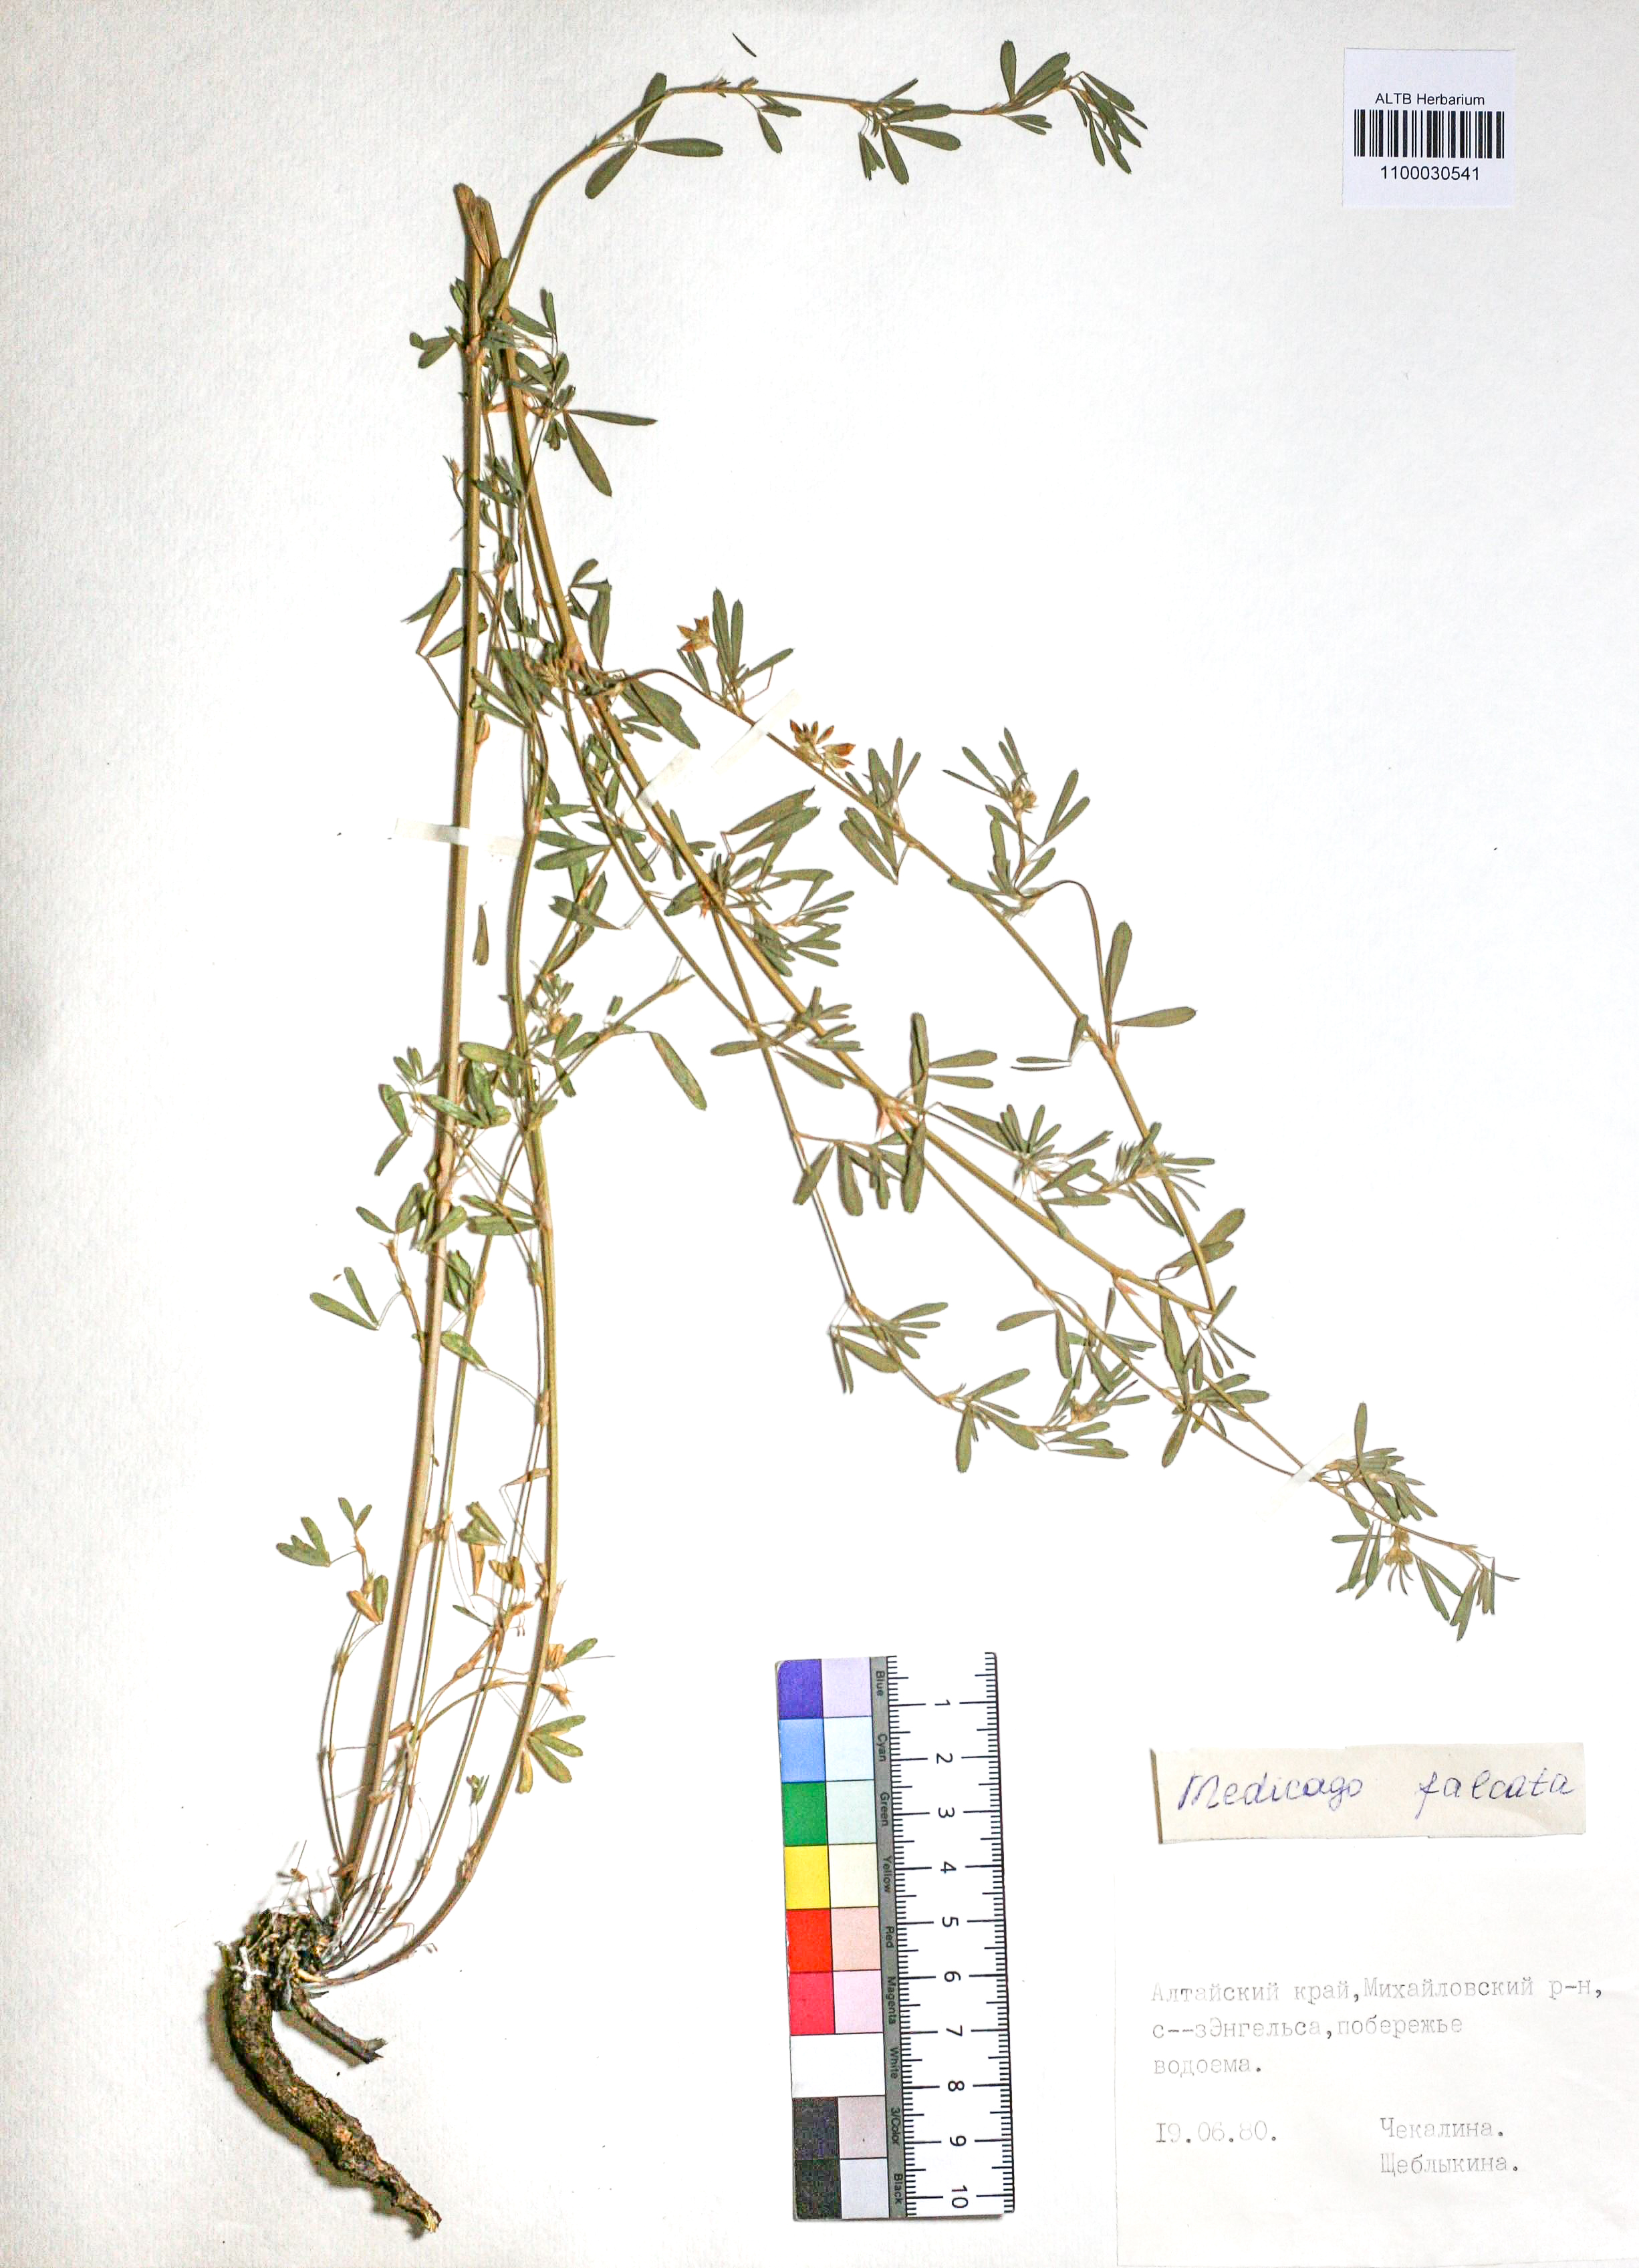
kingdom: Plantae
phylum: Tracheophyta
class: Magnoliopsida
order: Fabales
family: Fabaceae
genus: Medicago
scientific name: Medicago falcata
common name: Sickle medick
